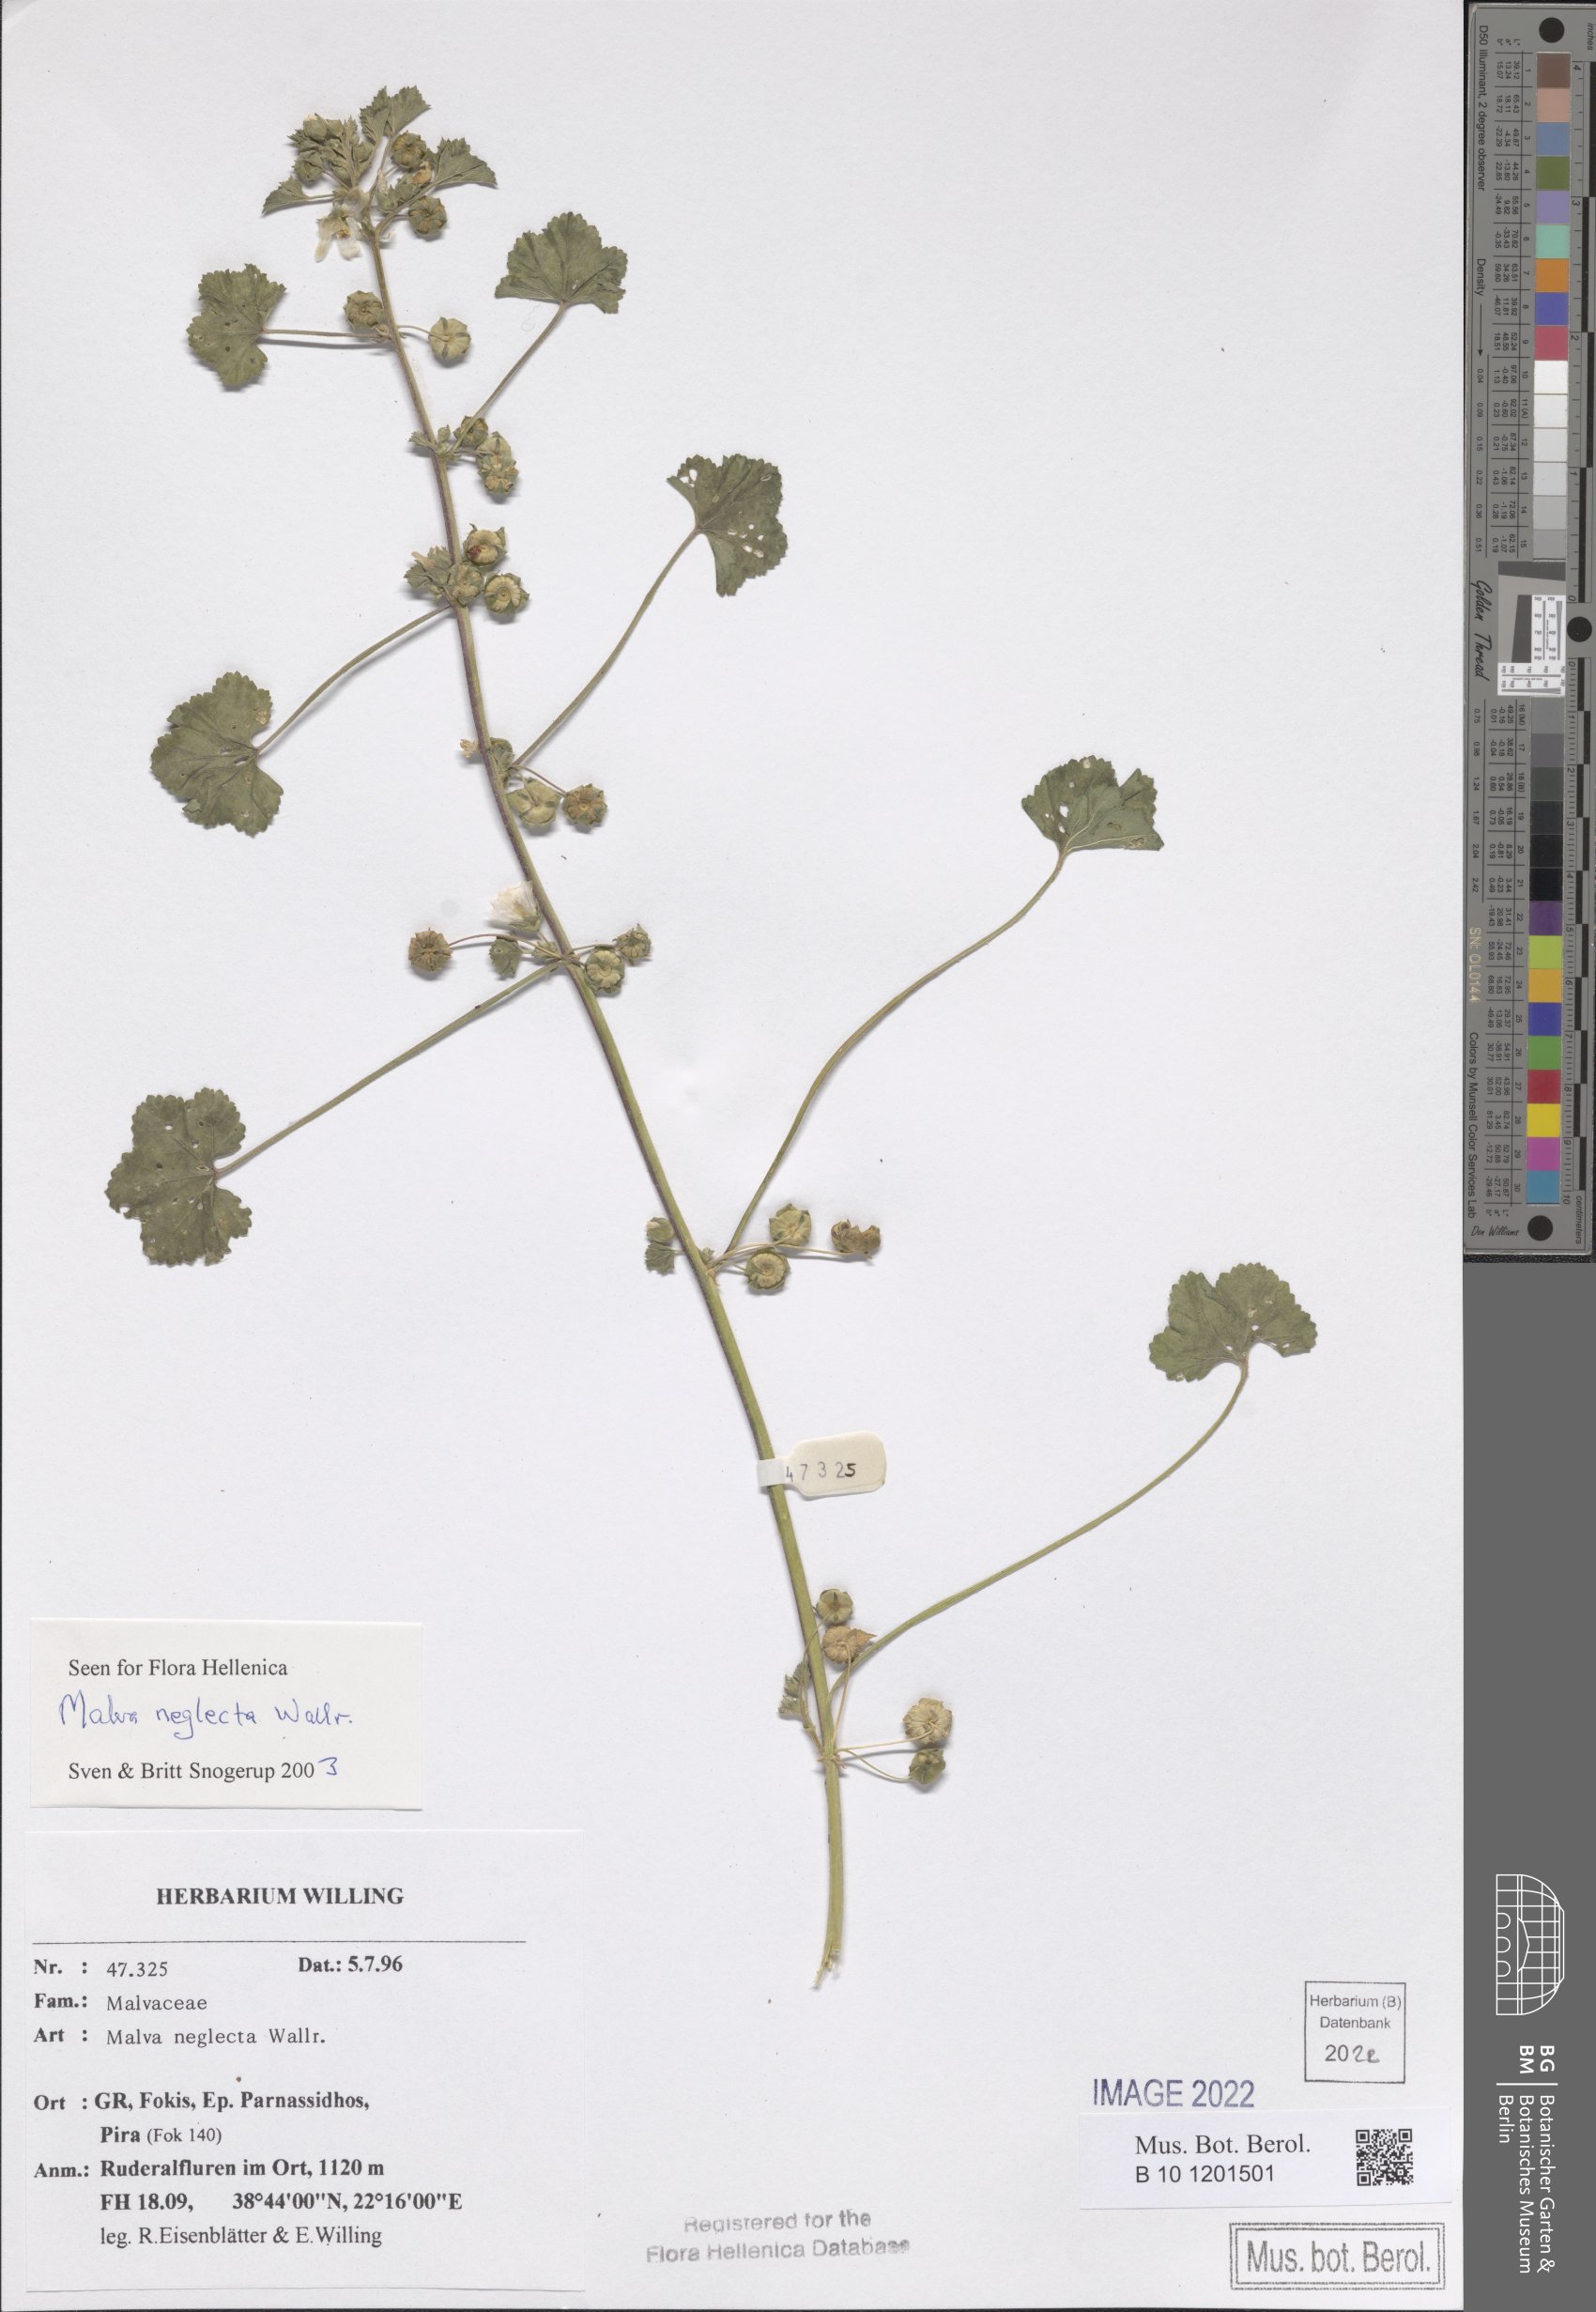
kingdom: Plantae
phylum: Tracheophyta
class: Magnoliopsida
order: Malvales
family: Malvaceae
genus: Malva
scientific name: Malva neglecta
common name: Common mallow
